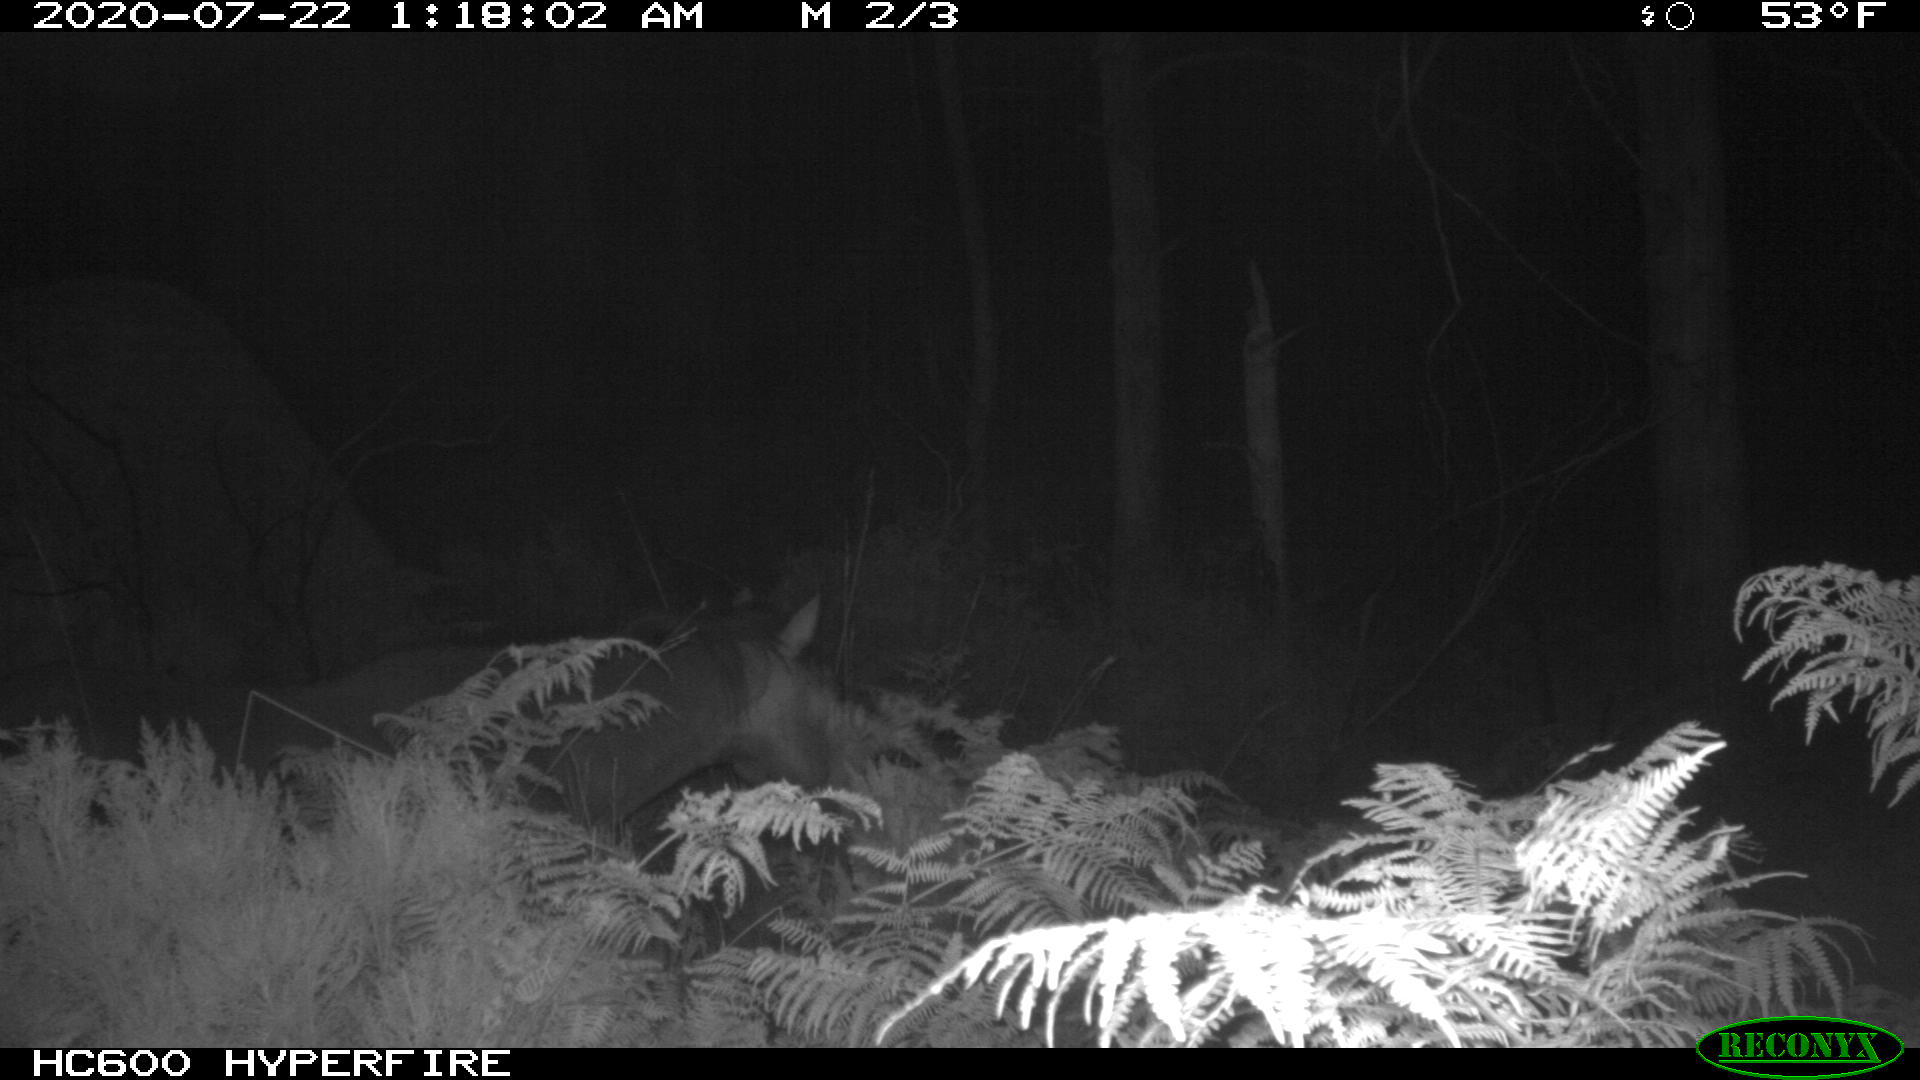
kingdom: Animalia
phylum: Chordata
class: Mammalia
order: Perissodactyla
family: Equidae
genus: Equus
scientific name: Equus caballus
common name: Horse
